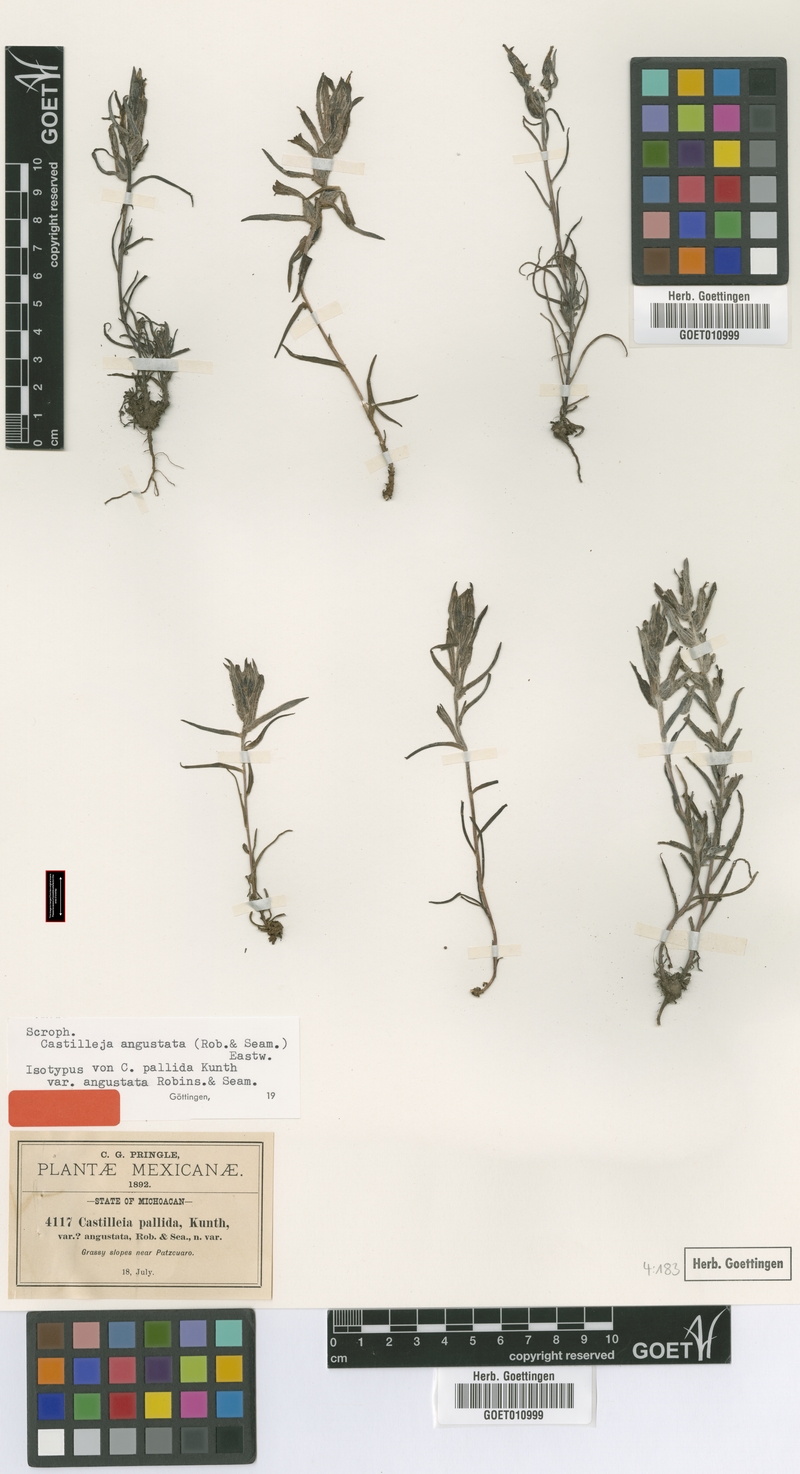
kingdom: Plantae
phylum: Tracheophyta
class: Magnoliopsida
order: Lamiales
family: Orobanchaceae
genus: Castilleja
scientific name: Castilleja angustata
